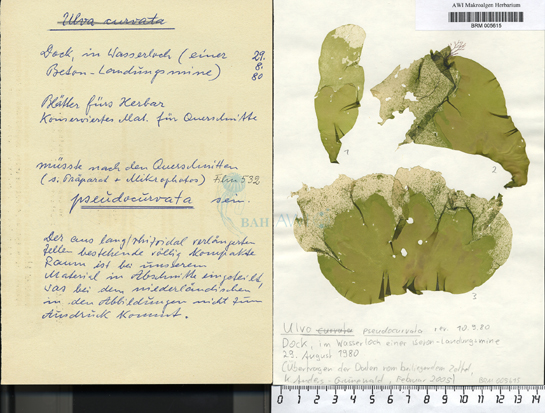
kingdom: Plantae
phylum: Chlorophyta
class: Ulvophyceae
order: Ulvales
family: Ulvaceae
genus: Ulva
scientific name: Ulva pseudocurvata
